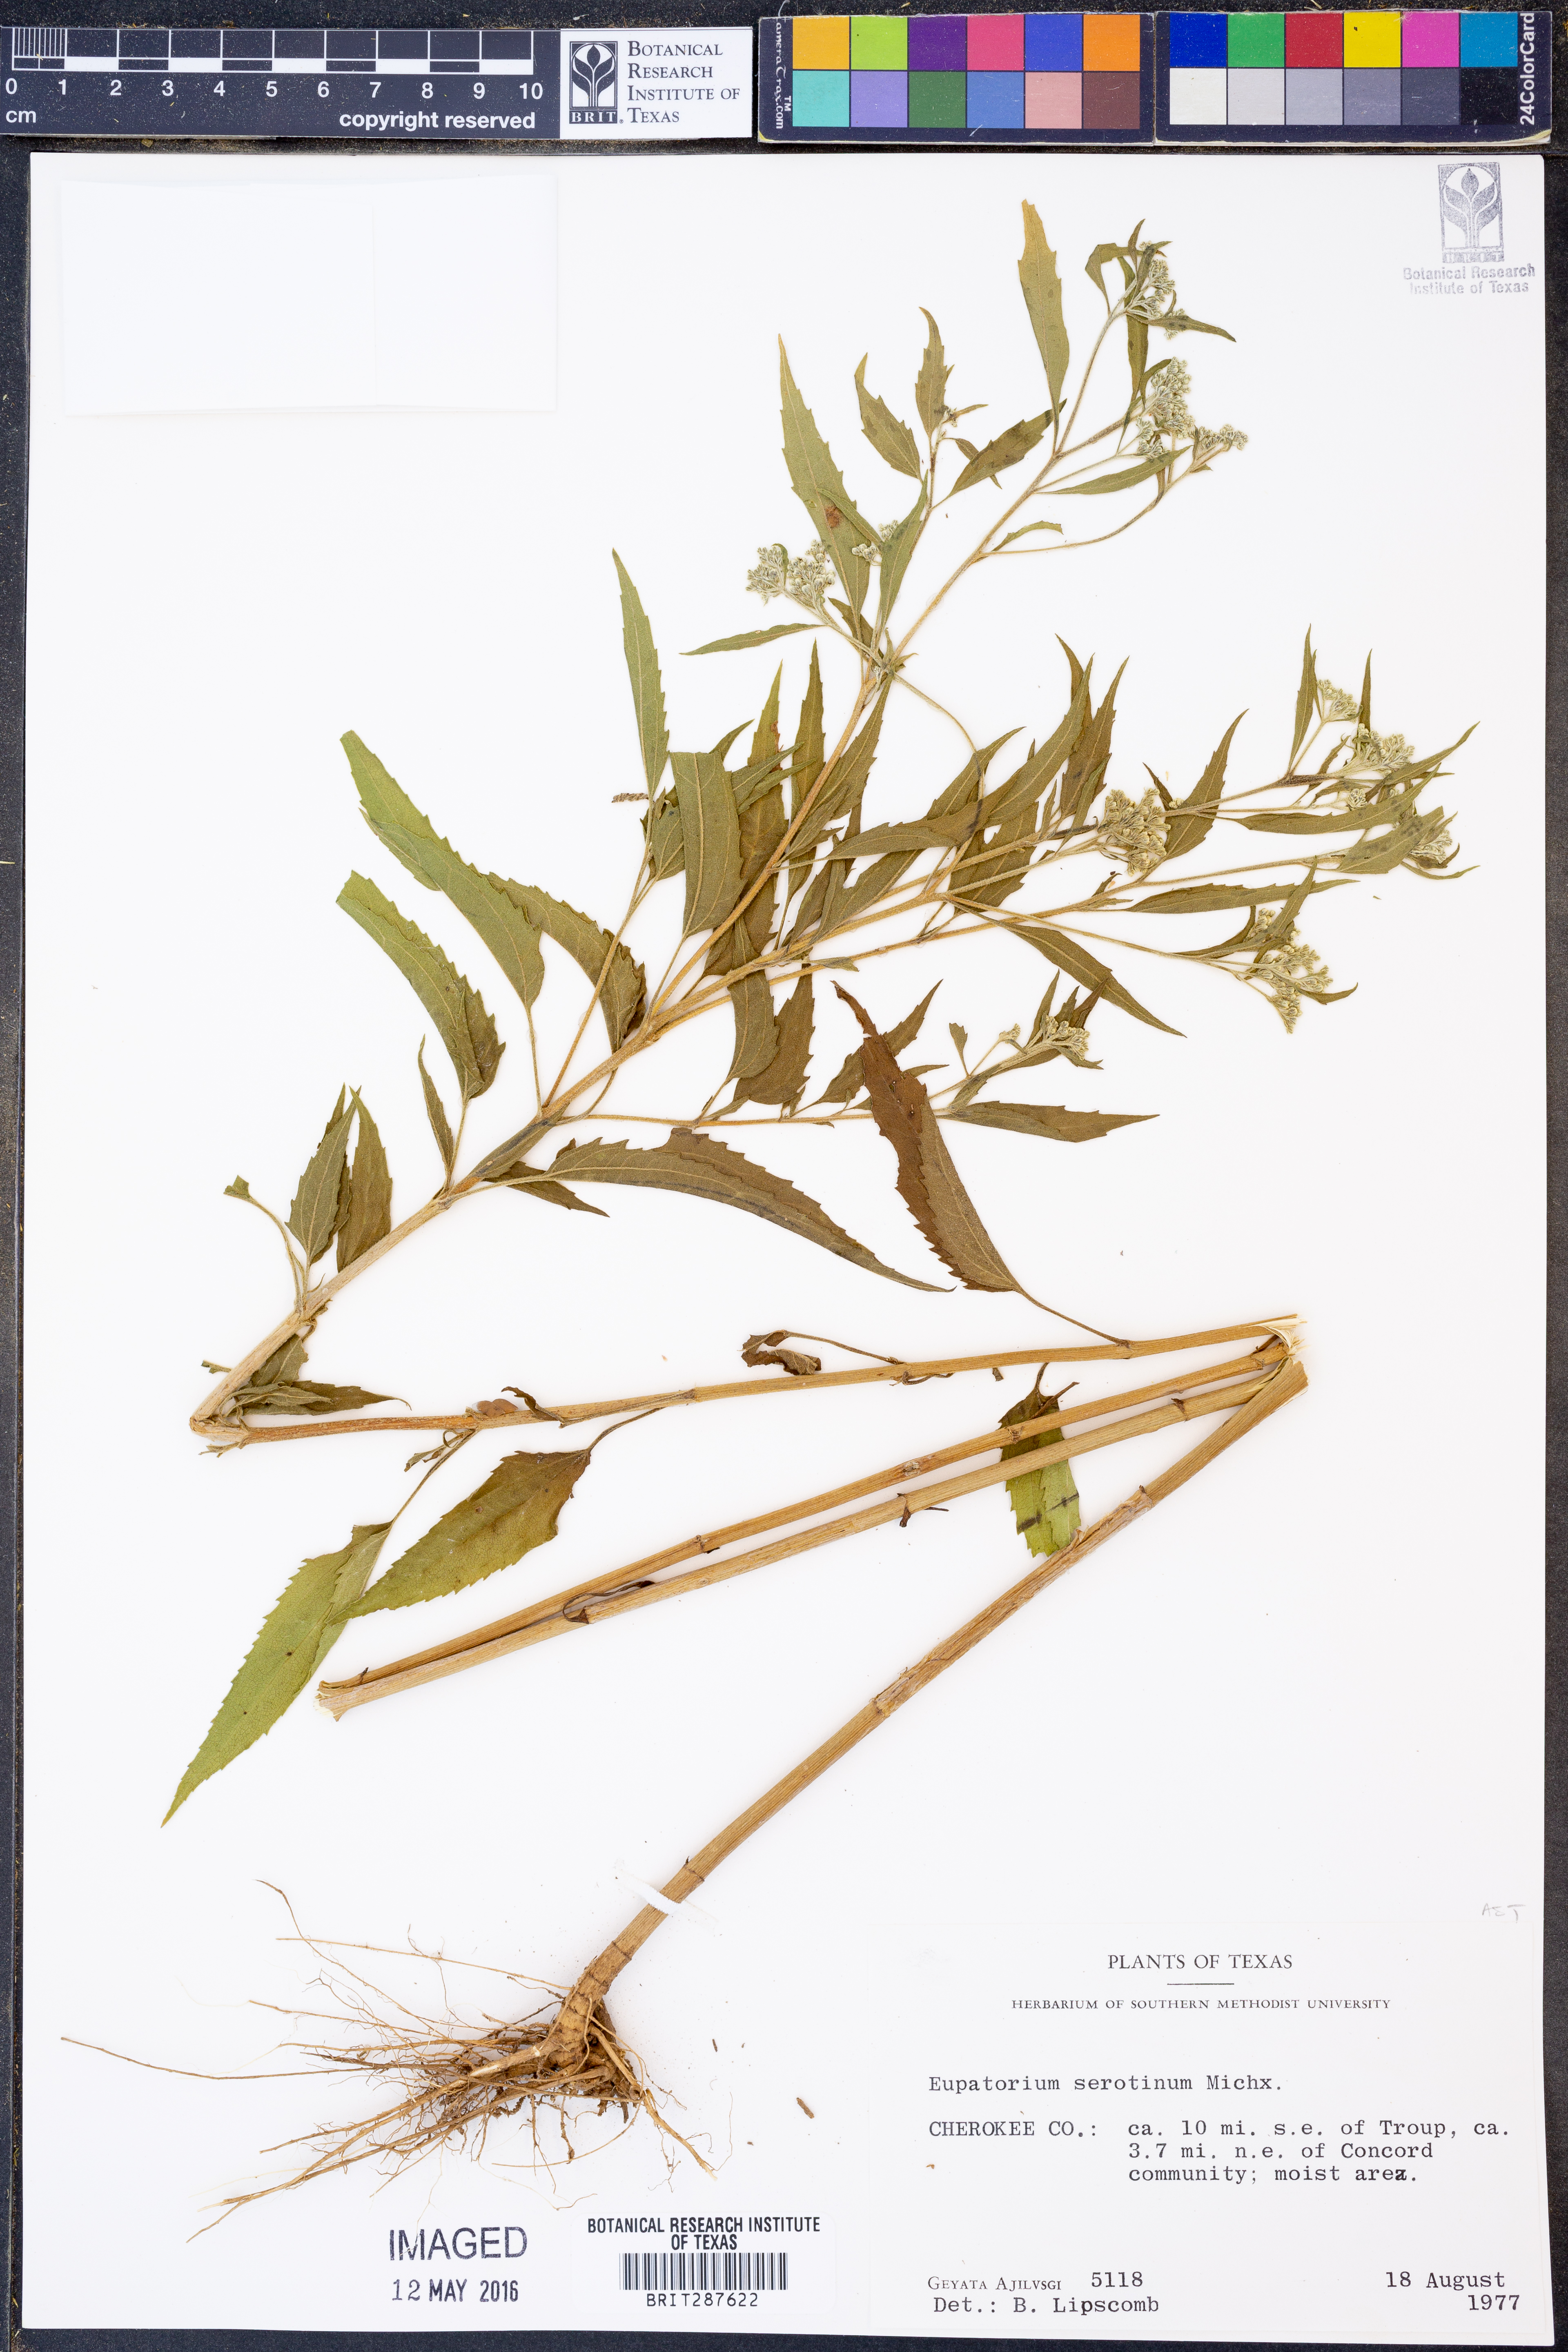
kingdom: Plantae
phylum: Tracheophyta
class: Magnoliopsida
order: Asterales
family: Asteraceae
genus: Eupatorium
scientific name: Eupatorium serotinum
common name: Late boneset
